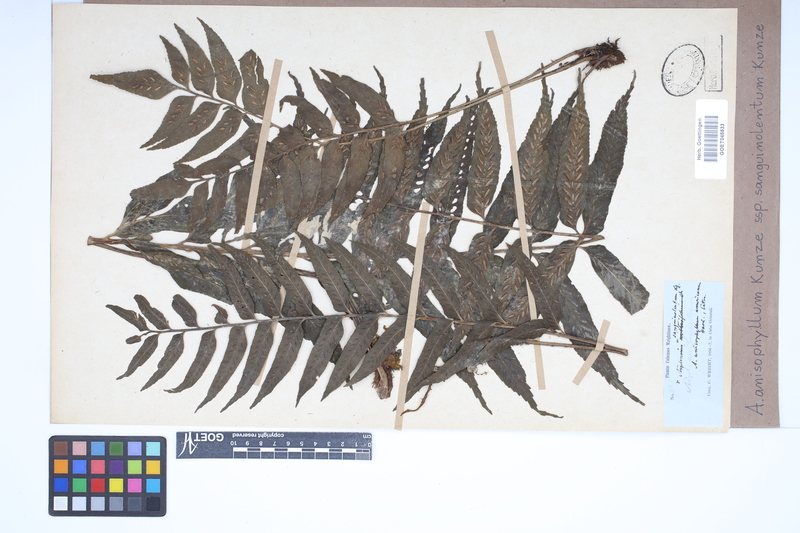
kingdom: Plantae
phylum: Tracheophyta
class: Polypodiopsida
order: Polypodiales
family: Aspleniaceae
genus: Asplenium
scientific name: Asplenium feei
